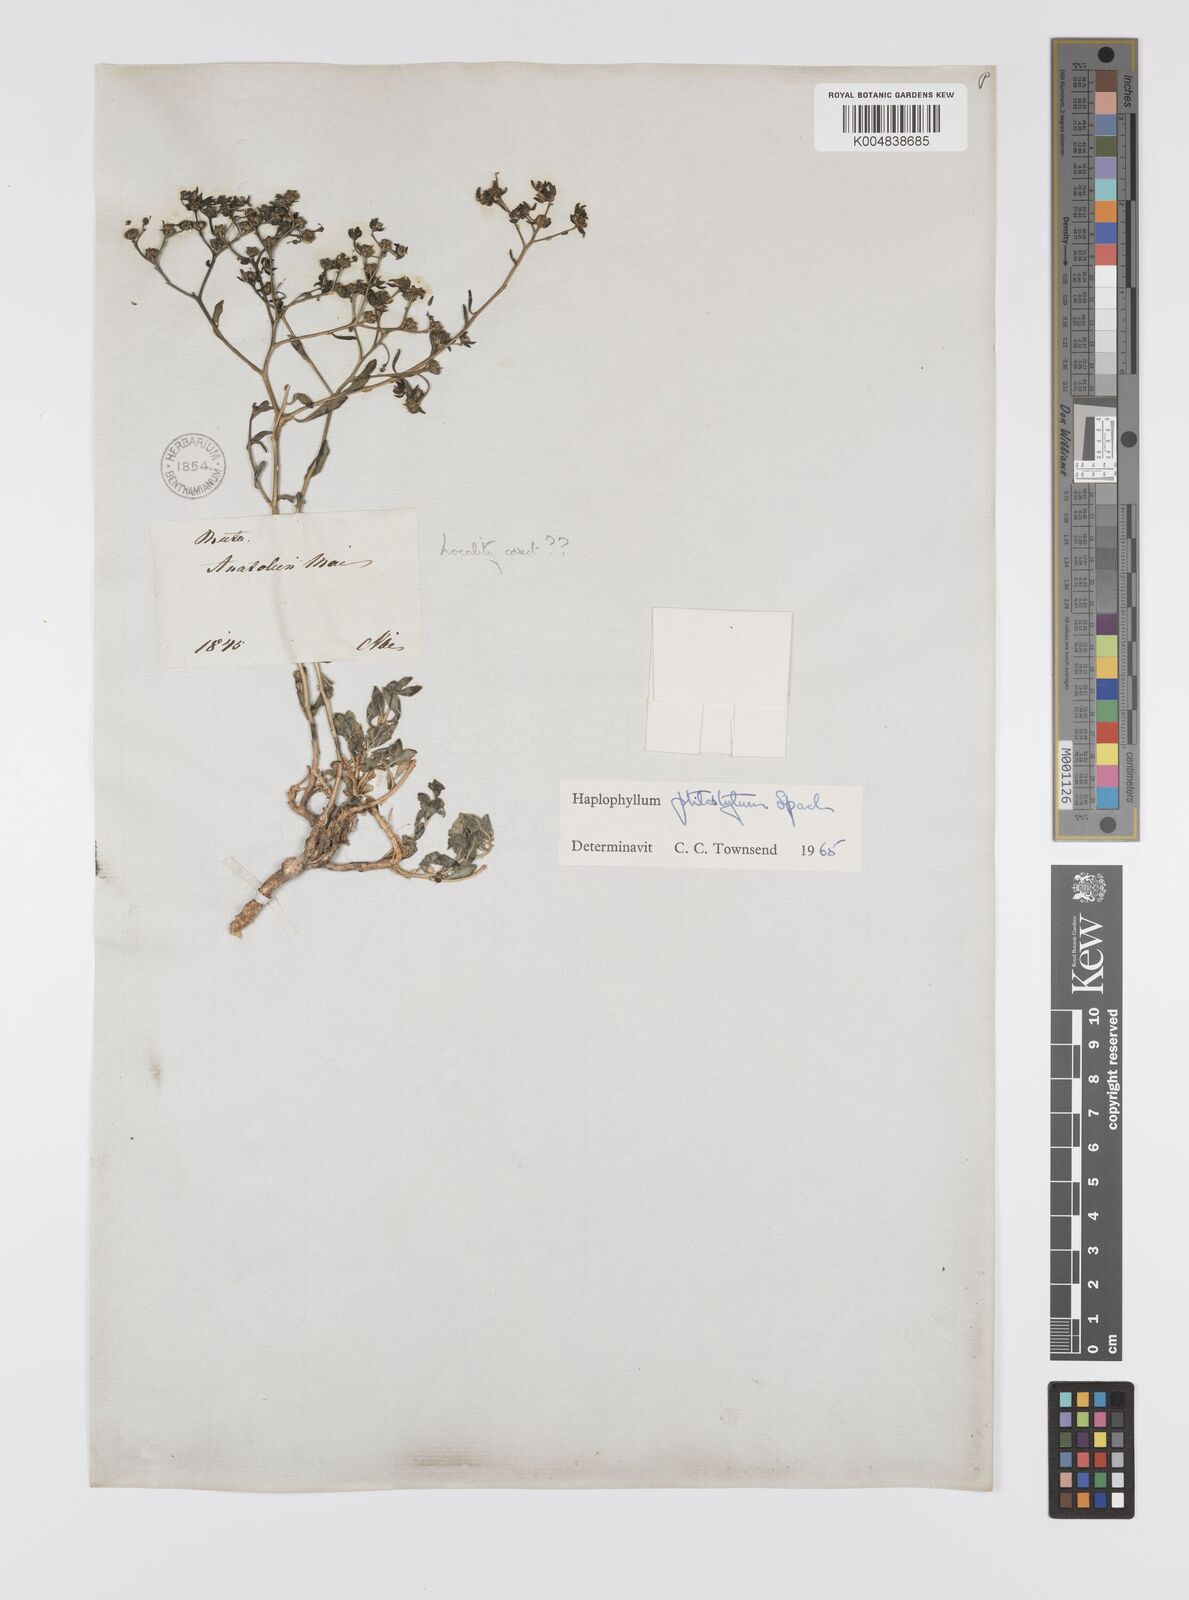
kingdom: Plantae
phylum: Tracheophyta
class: Magnoliopsida
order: Sapindales
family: Rutaceae
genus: Haplophyllum
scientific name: Haplophyllum ptilostylum
